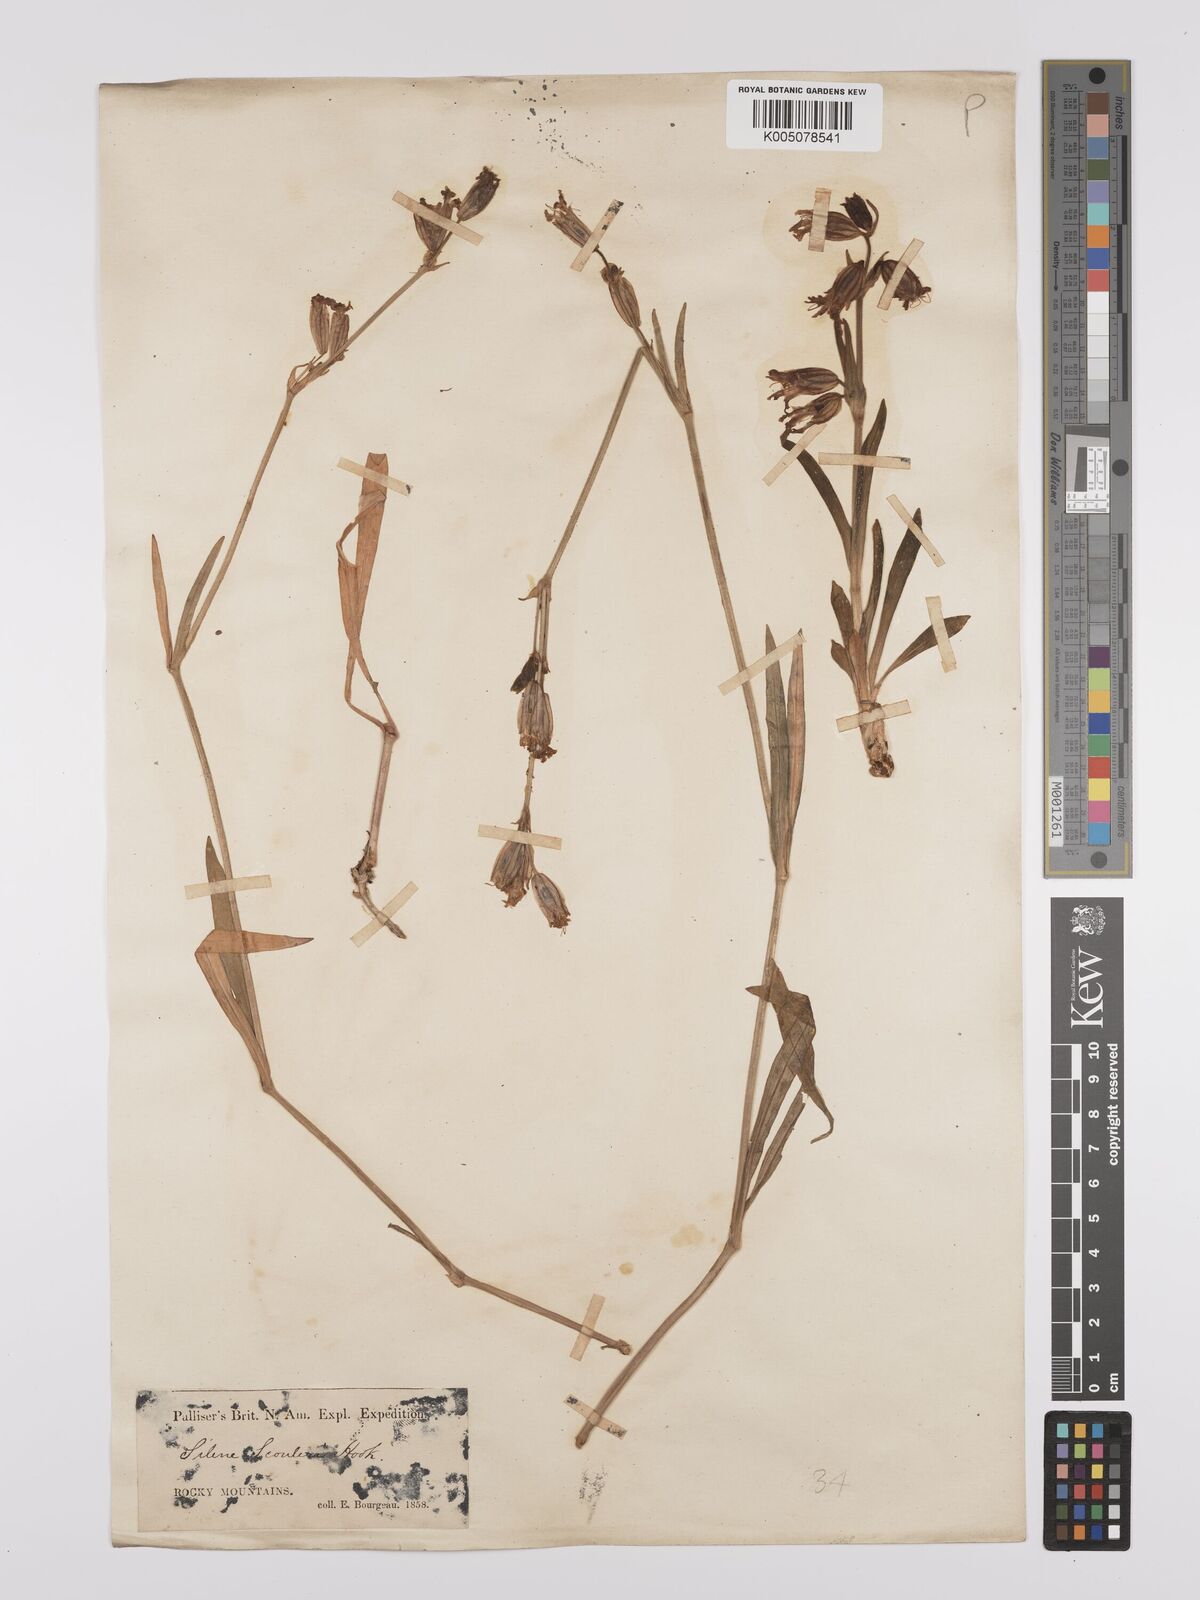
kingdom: Plantae
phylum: Tracheophyta
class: Magnoliopsida
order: Caryophyllales
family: Caryophyllaceae
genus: Silene
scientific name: Silene parryi
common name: Parry's campion
